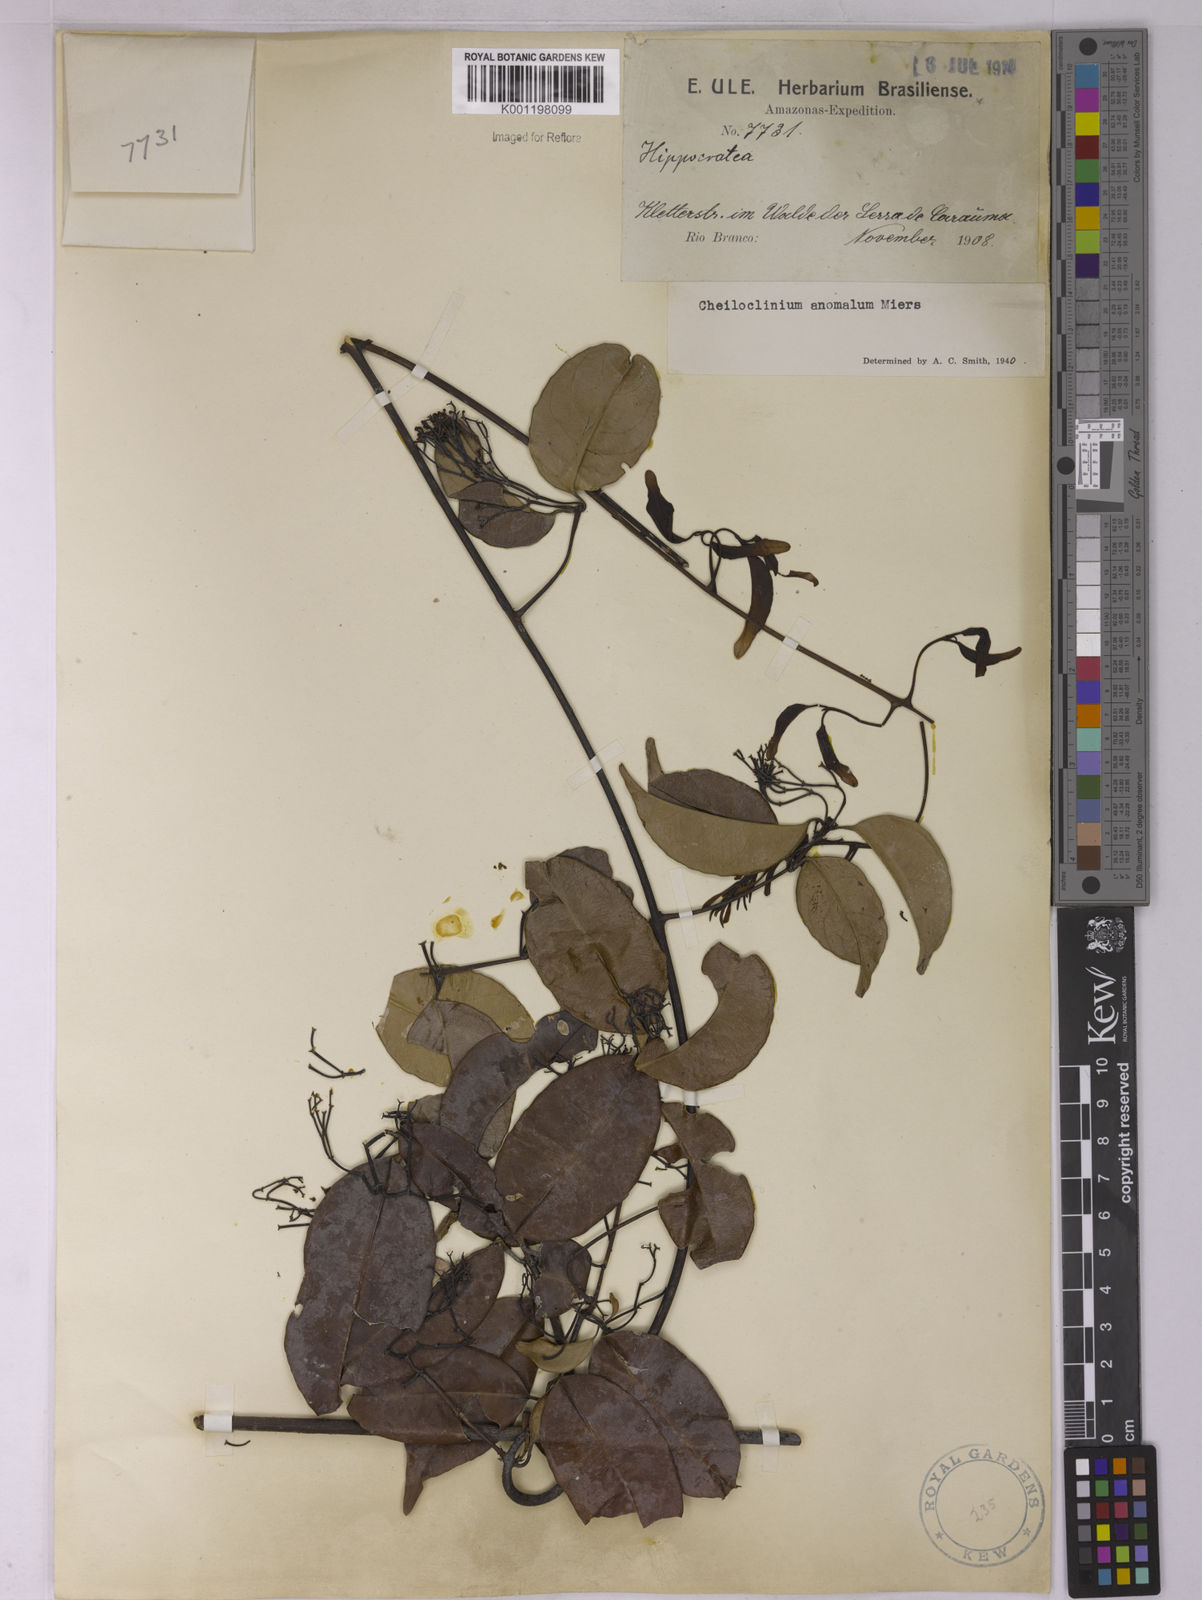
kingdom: Plantae
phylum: Tracheophyta
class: Magnoliopsida
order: Celastrales
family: Celastraceae
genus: Cheiloclinium
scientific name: Cheiloclinium anomalum
